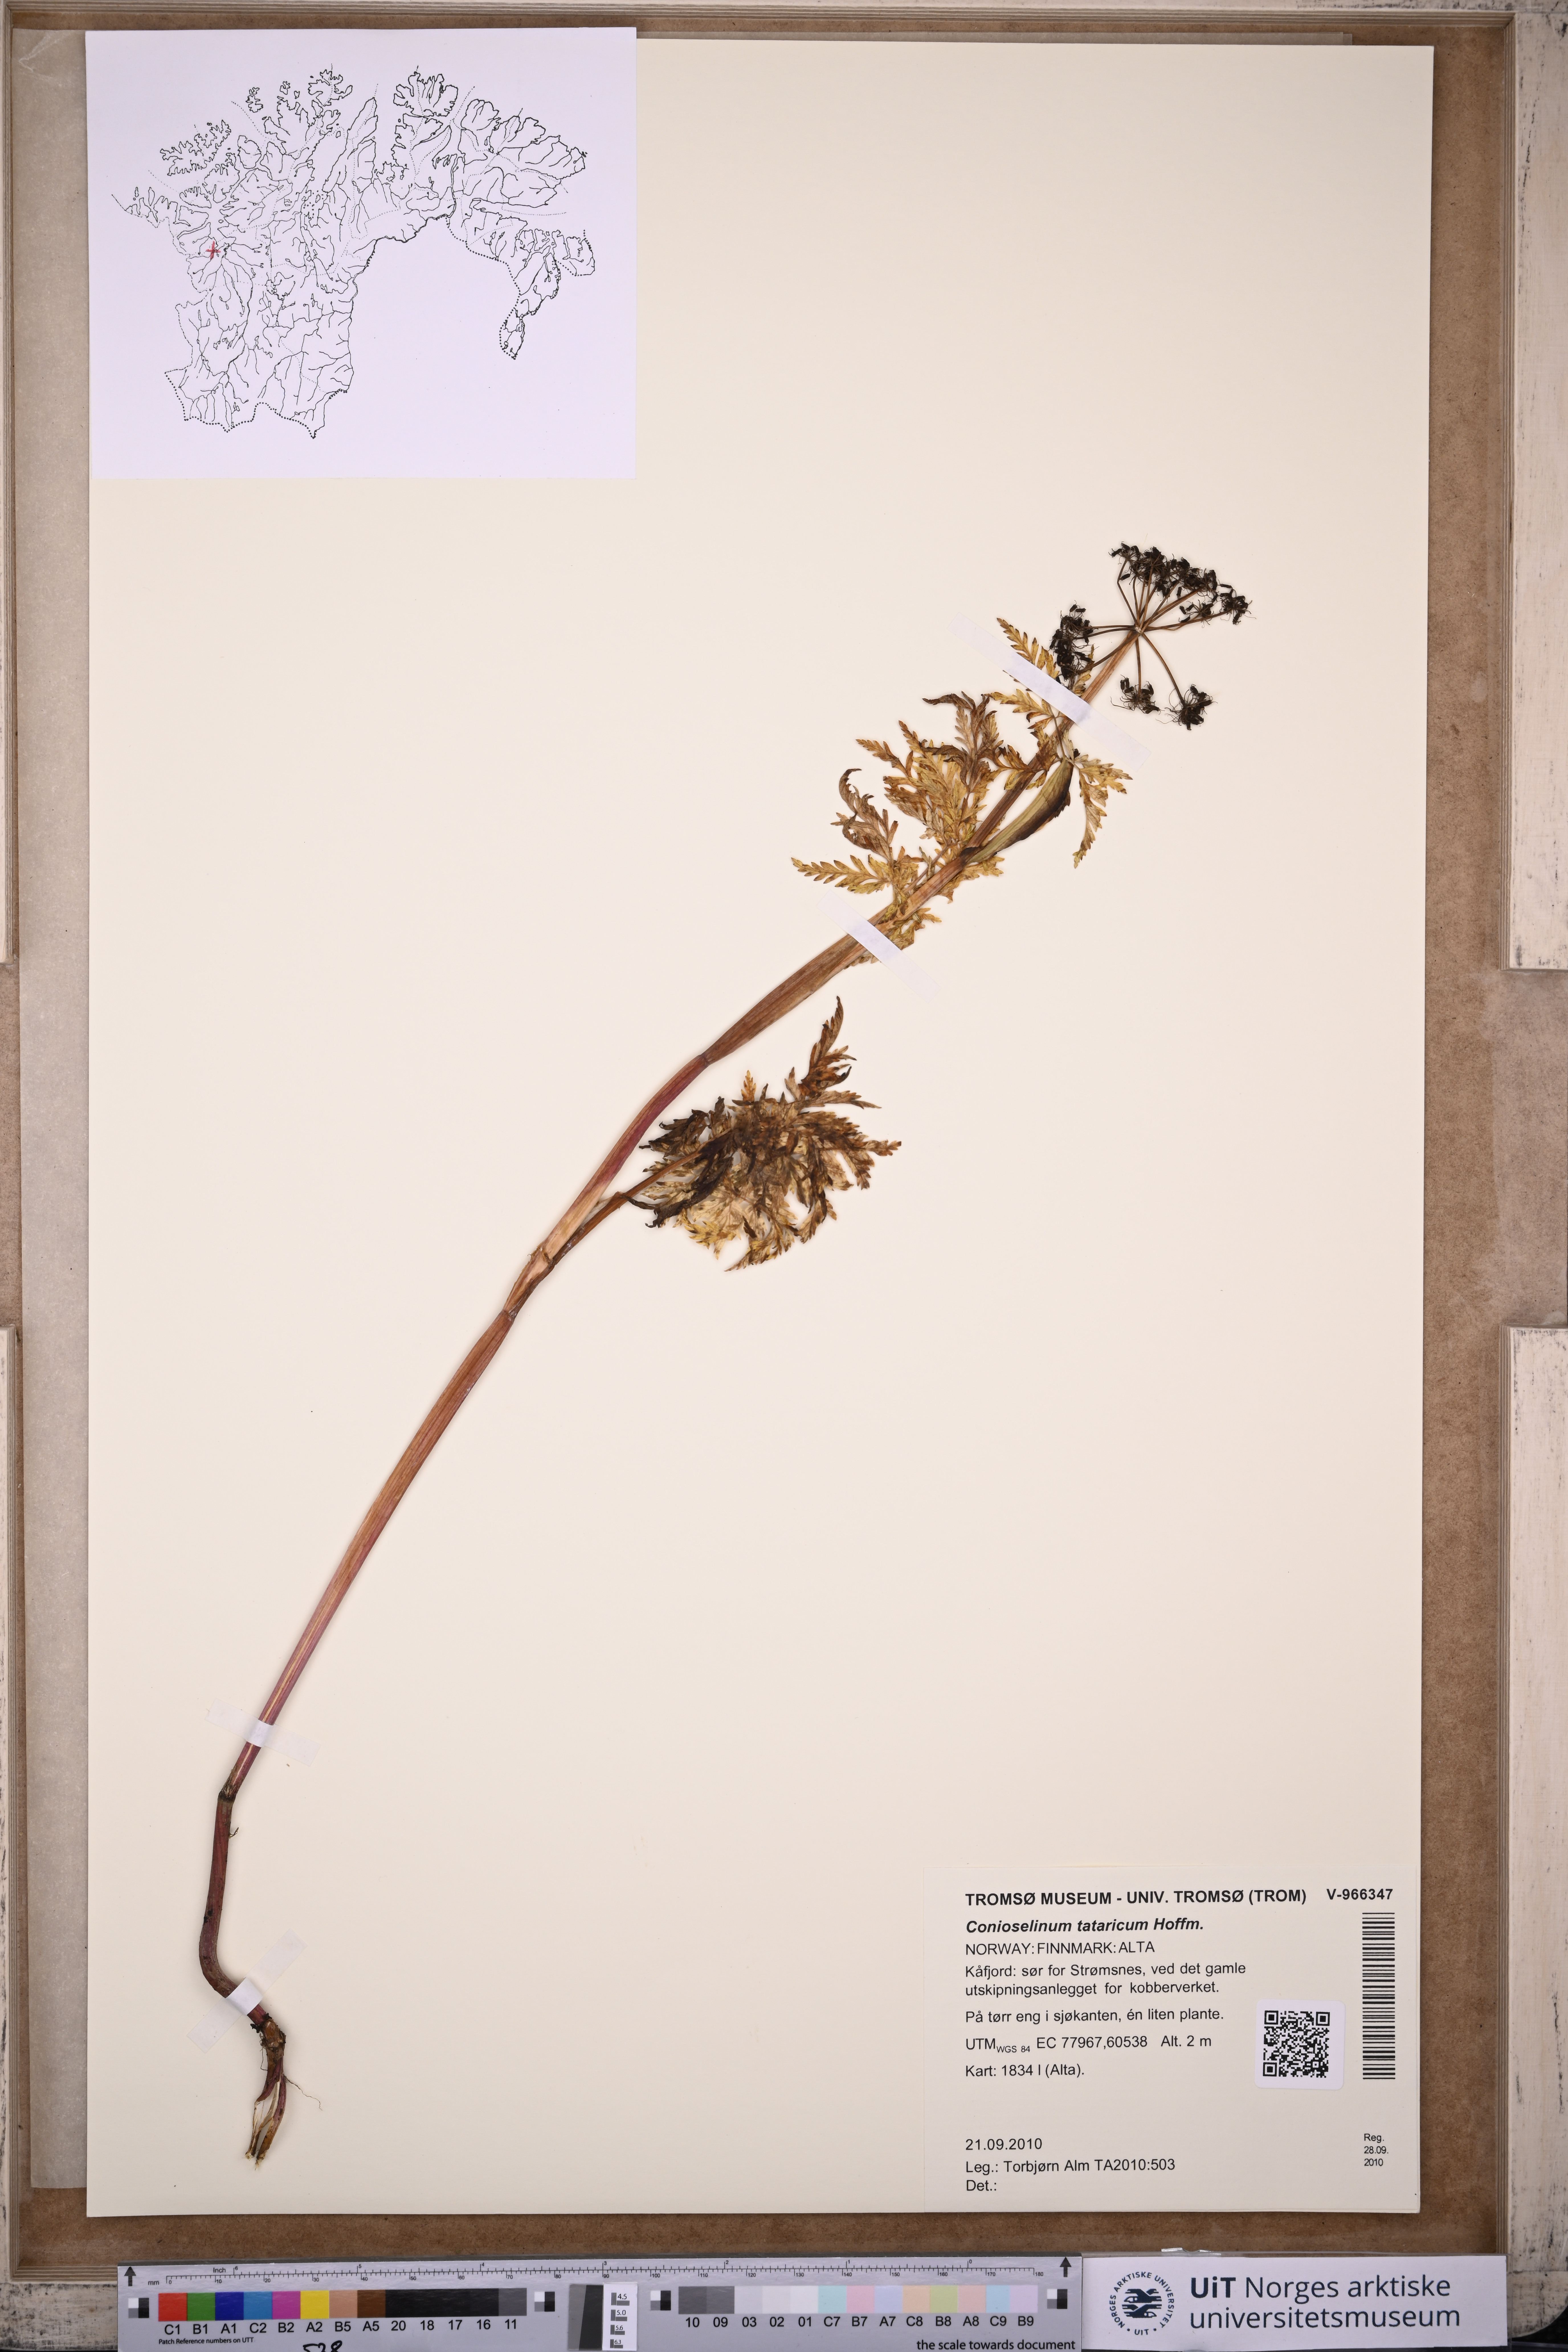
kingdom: Plantae
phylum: Tracheophyta
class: Magnoliopsida
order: Apiales
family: Apiaceae
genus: Seseli
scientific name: Seseli condensatum
